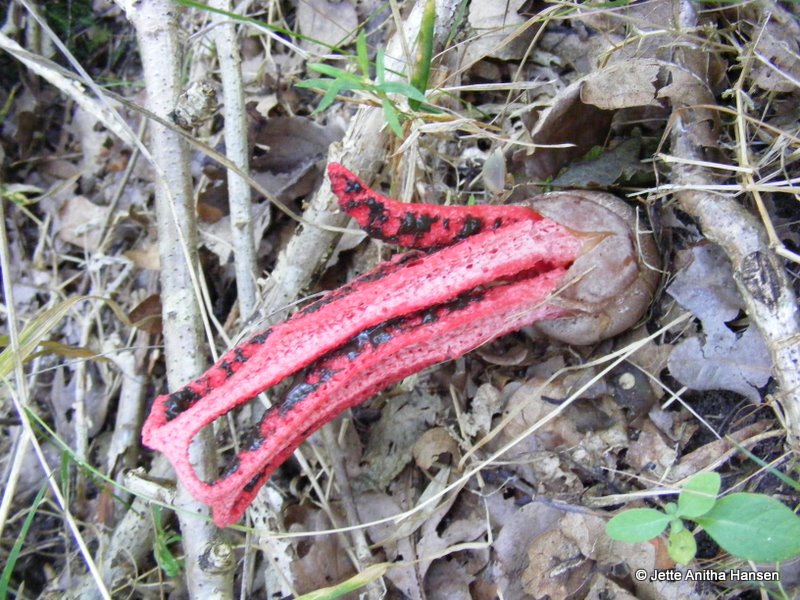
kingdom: Fungi
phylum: Basidiomycota
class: Agaricomycetes
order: Phallales
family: Phallaceae
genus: Clathrus
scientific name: Clathrus archeri
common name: blækspruttesvamp
